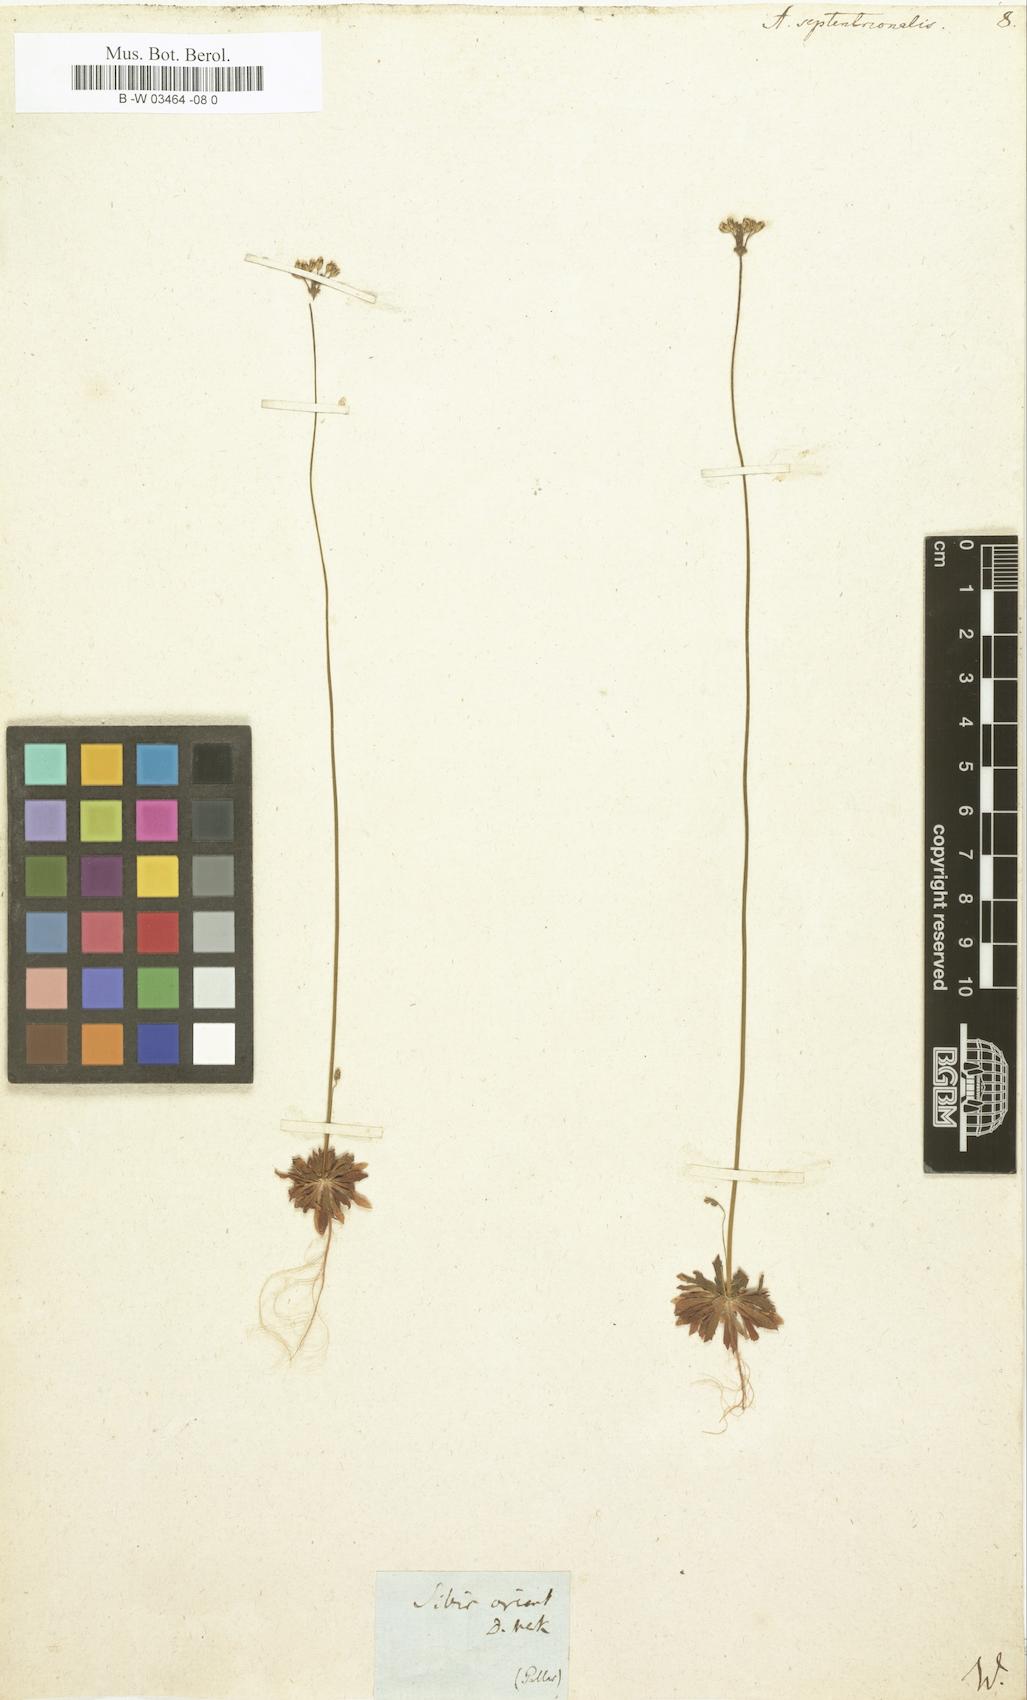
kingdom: Plantae
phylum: Tracheophyta
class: Magnoliopsida
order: Ericales
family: Primulaceae
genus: Androsace
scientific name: Androsace septentrionalis
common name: Hairy northern fairy-candelabra
